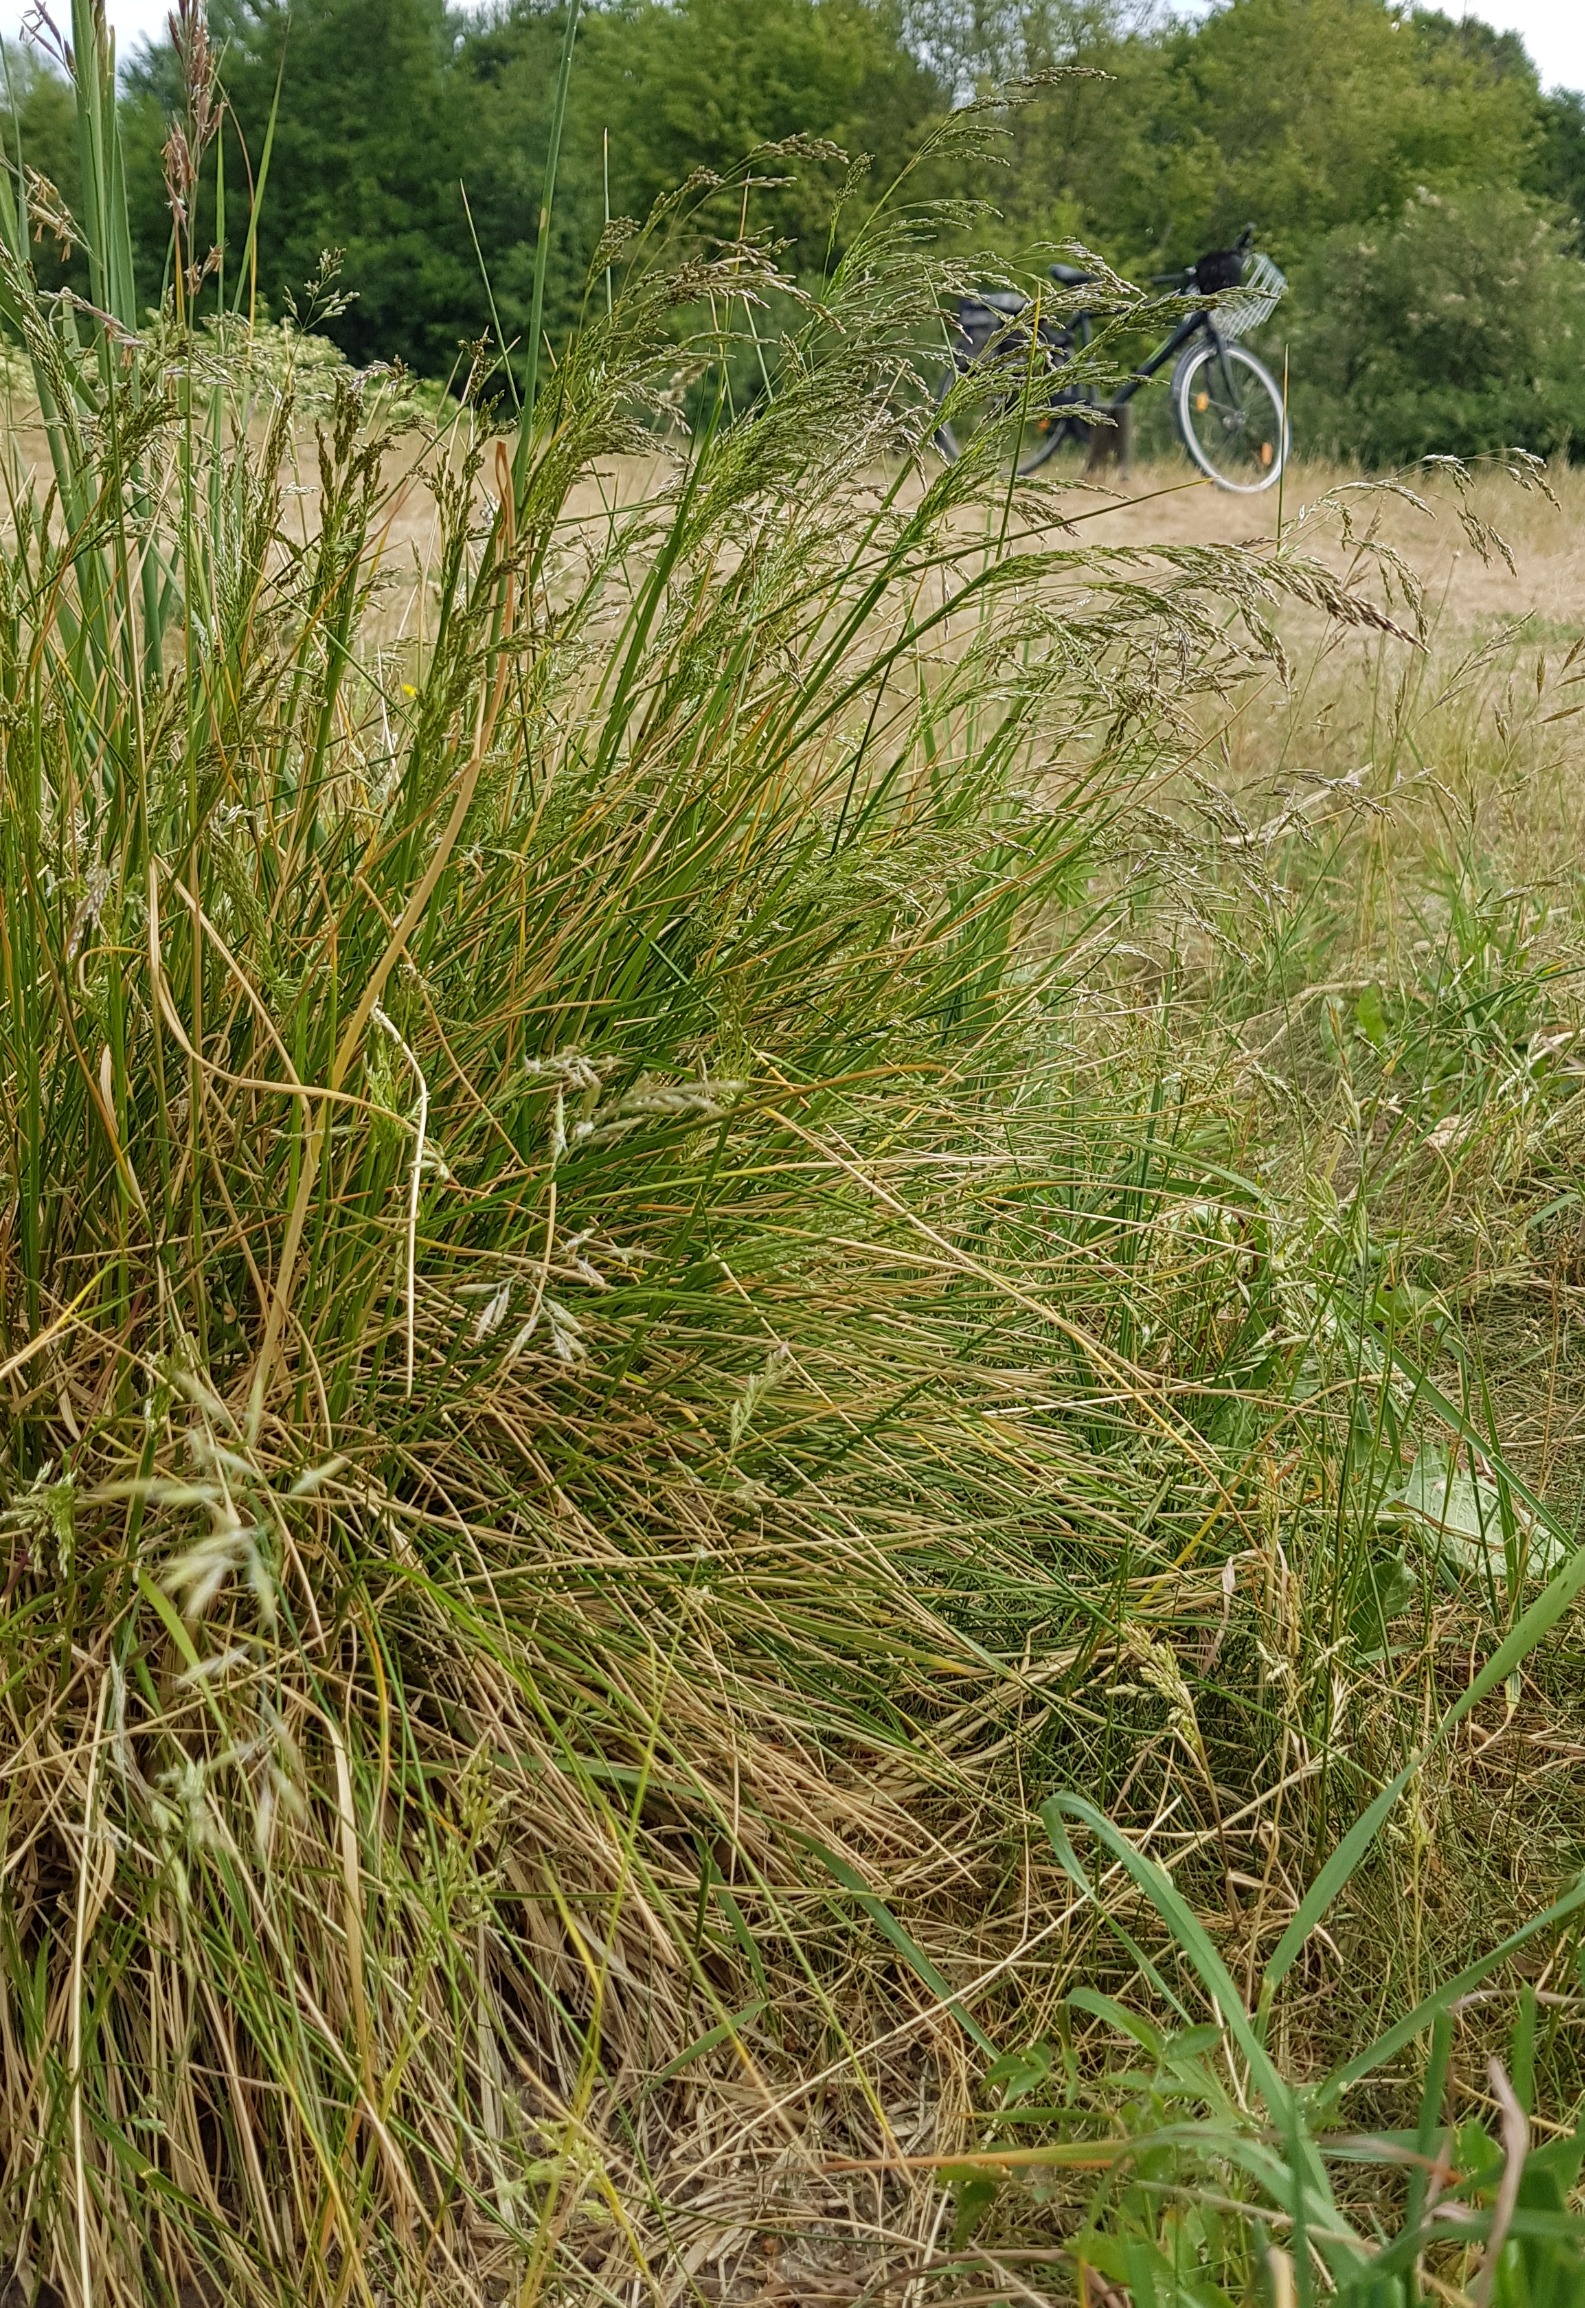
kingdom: Plantae
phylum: Tracheophyta
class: Liliopsida
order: Poales
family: Poaceae
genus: Deschampsia
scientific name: Deschampsia cespitosa
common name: Mose-bunke
